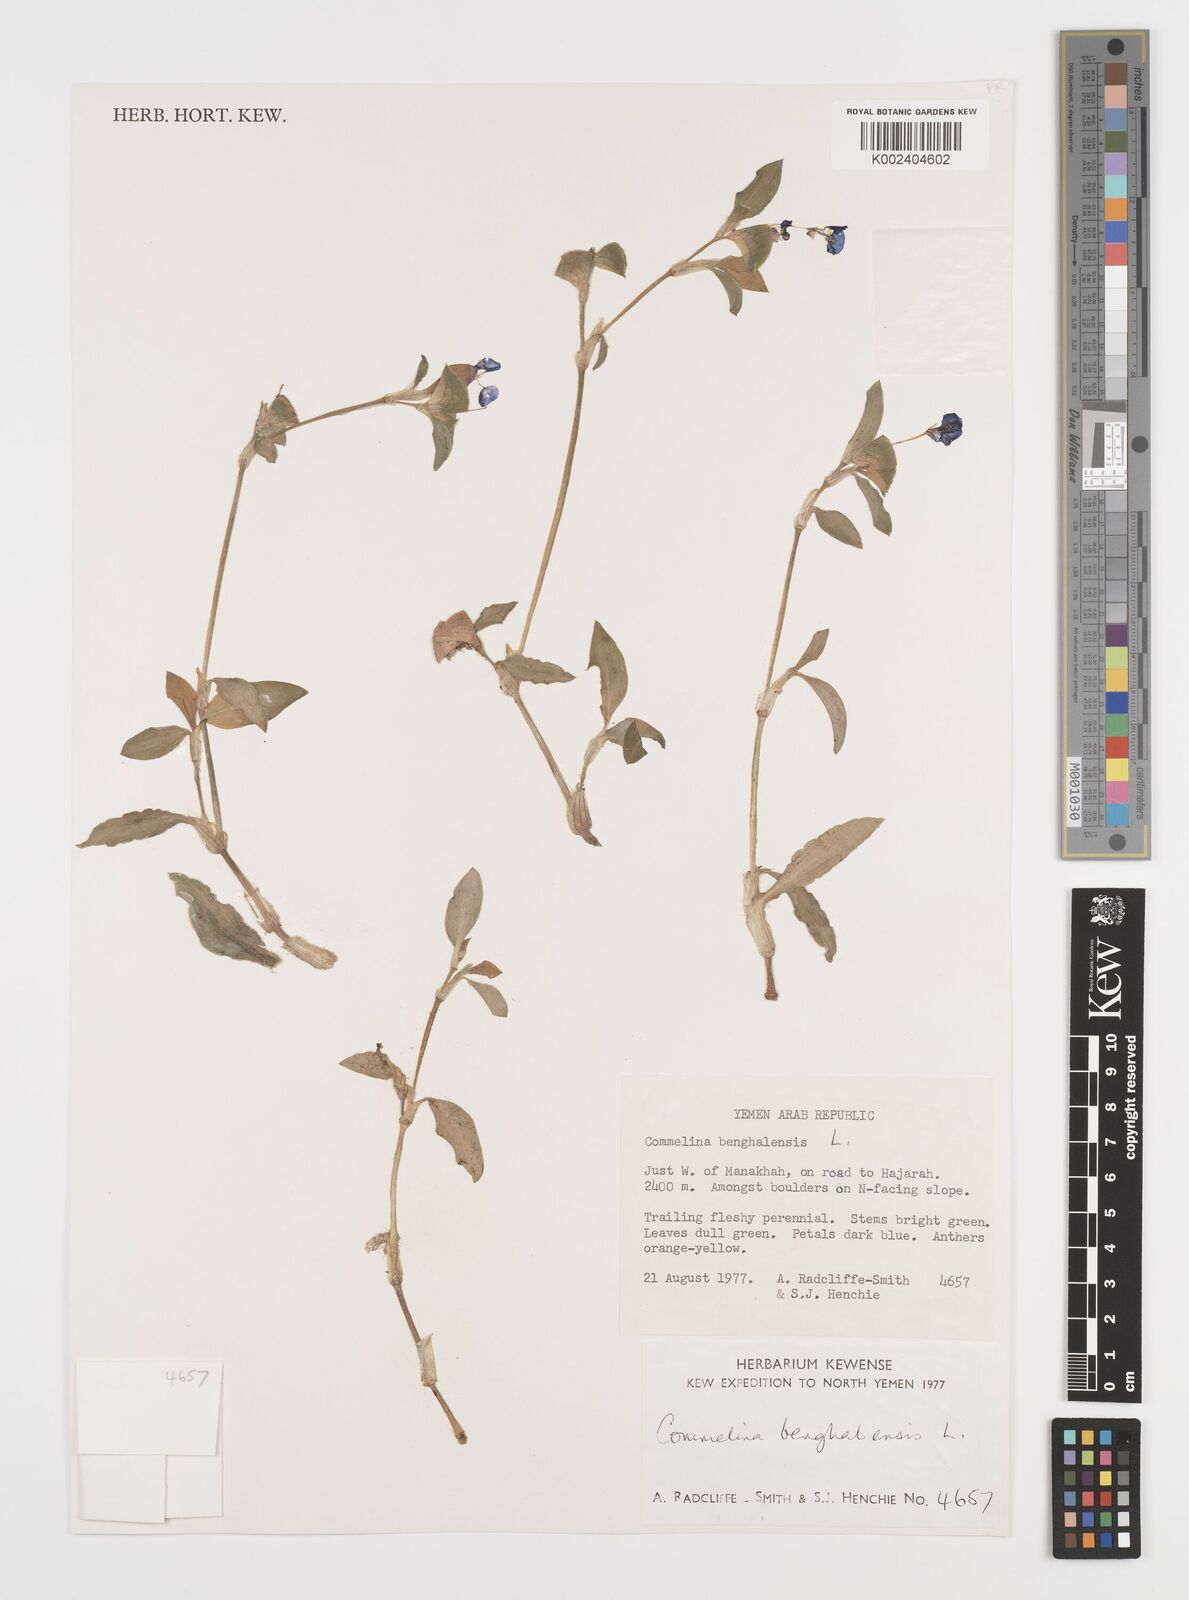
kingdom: Plantae
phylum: Tracheophyta
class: Liliopsida
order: Commelinales
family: Commelinaceae
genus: Commelina
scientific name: Commelina benghalensis
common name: Jio
